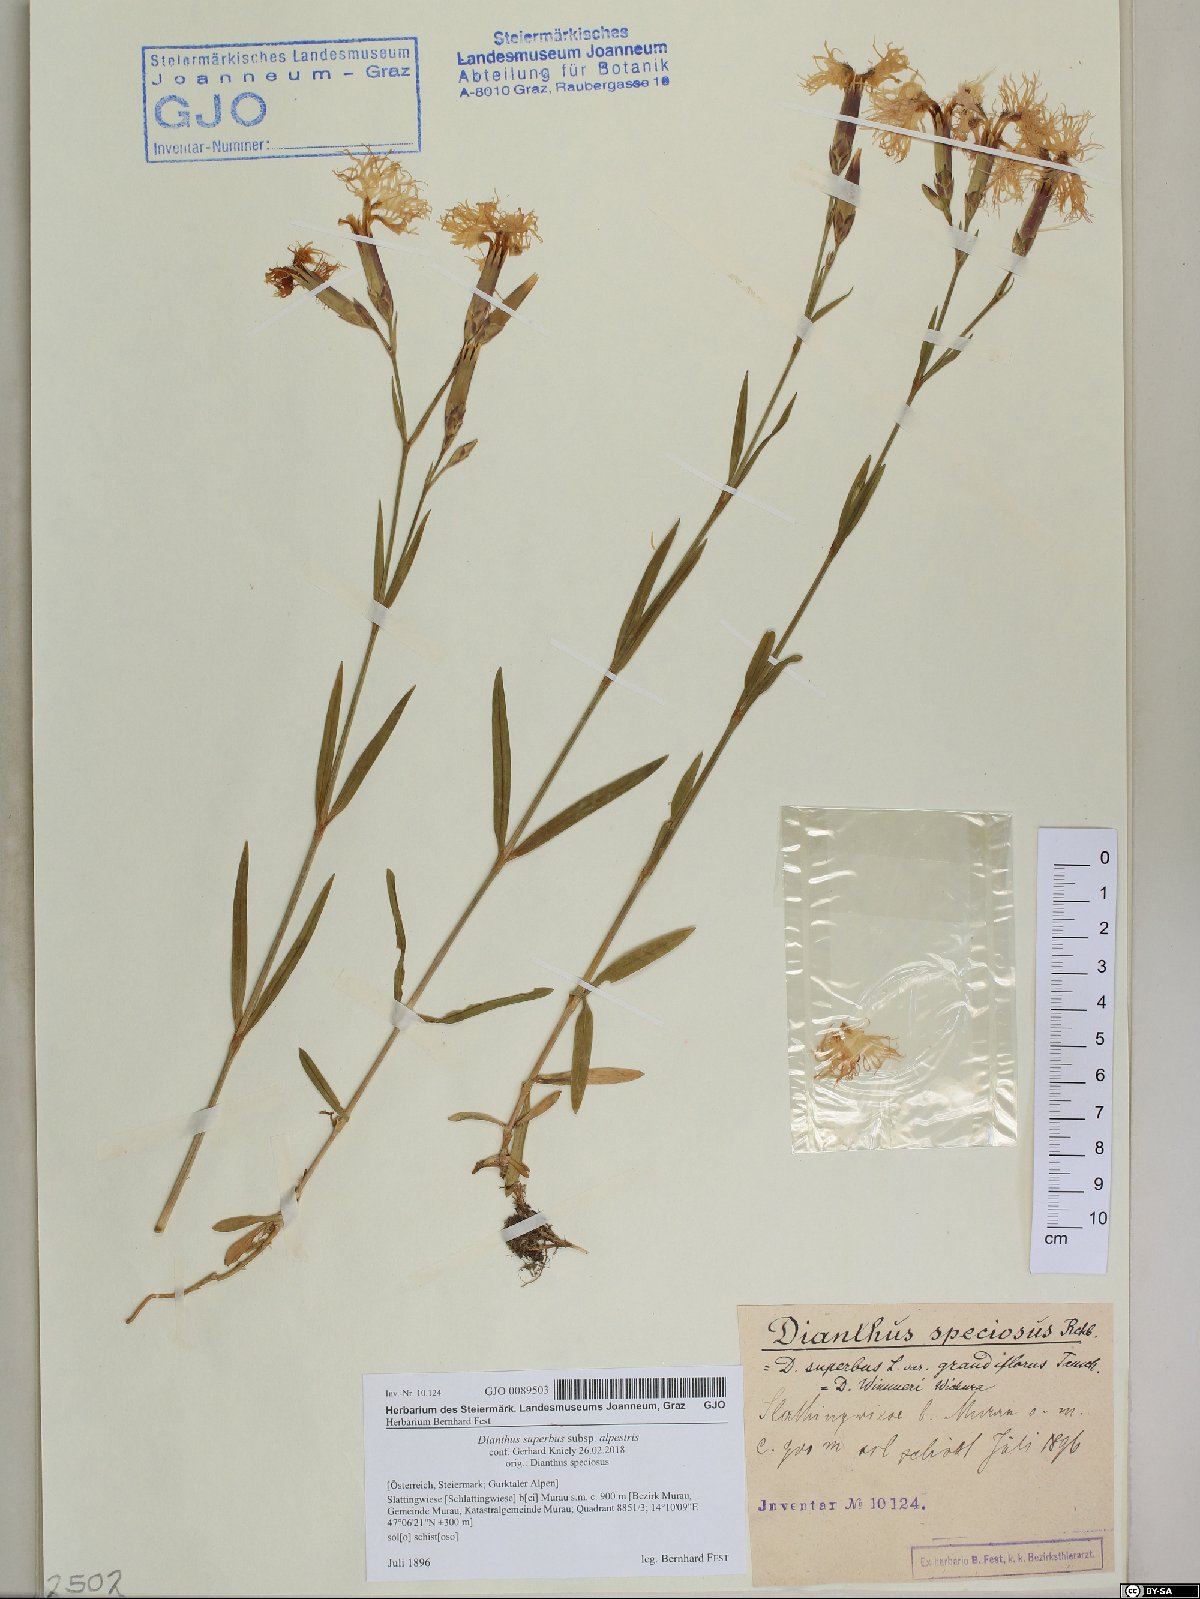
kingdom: Plantae
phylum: Tracheophyta
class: Magnoliopsida
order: Caryophyllales
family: Caryophyllaceae
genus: Dianthus
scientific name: Dianthus superbus
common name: Fringed pink
